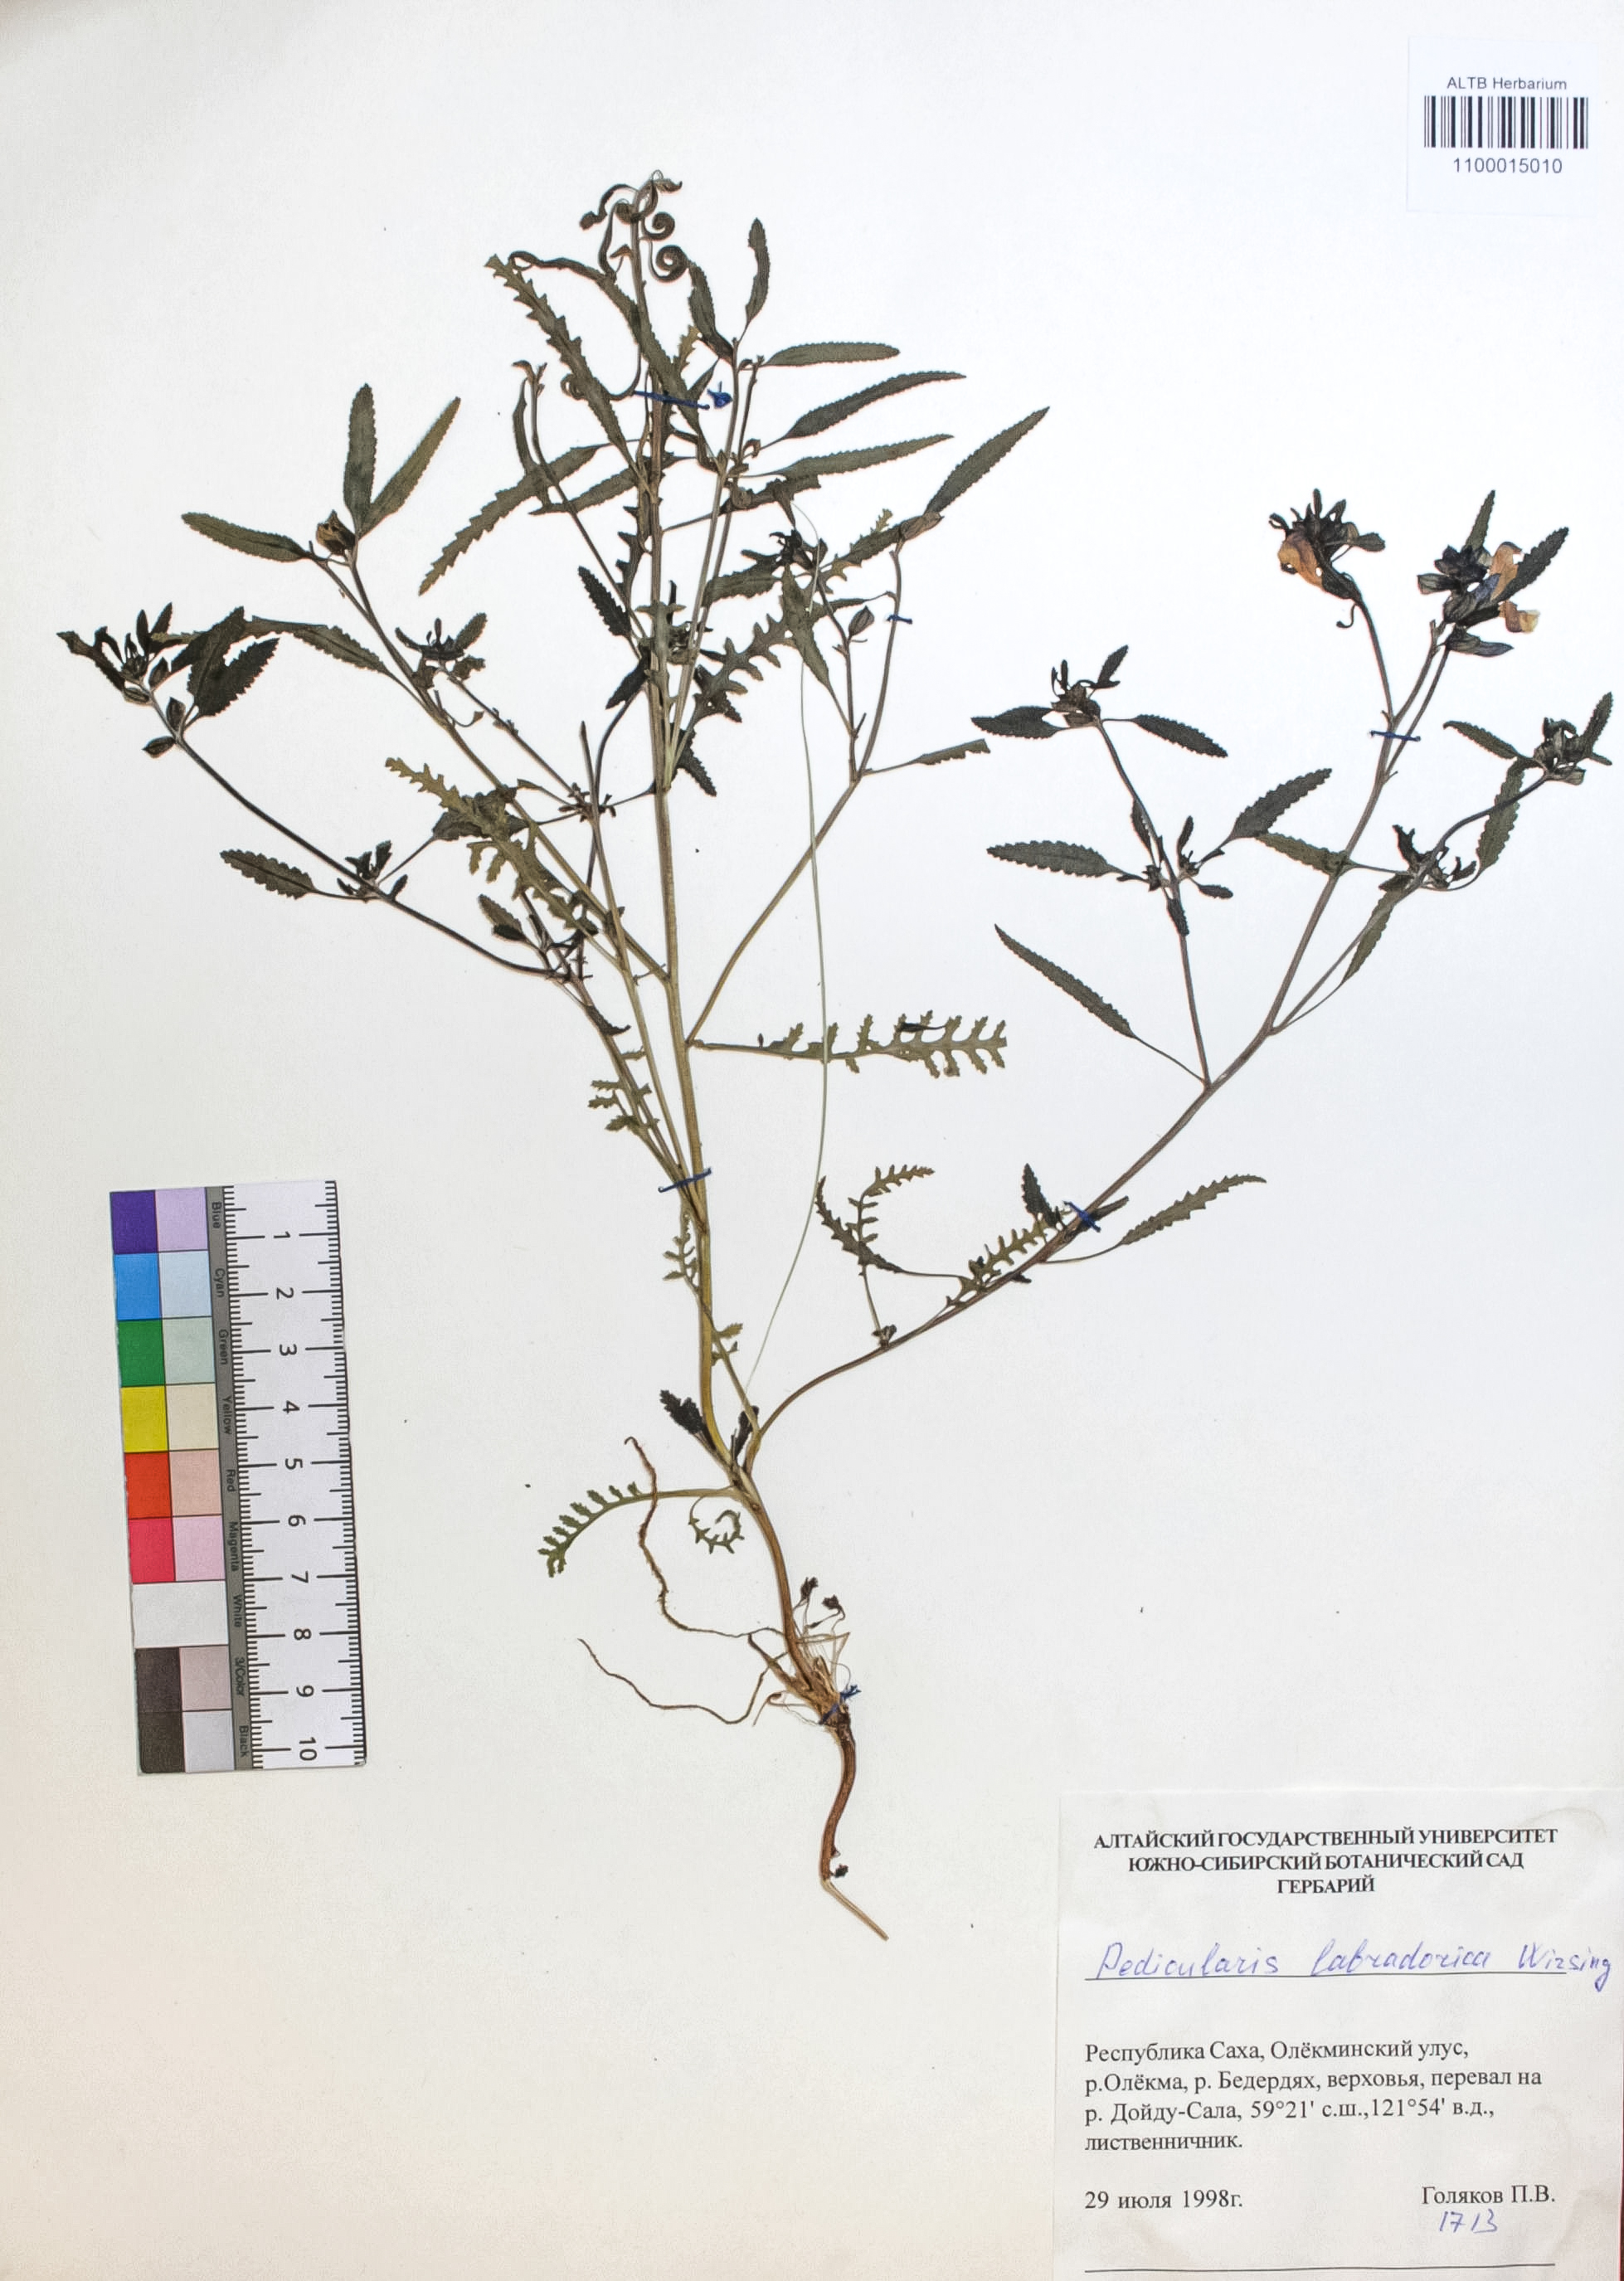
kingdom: Plantae
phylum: Tracheophyta
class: Magnoliopsida
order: Lamiales
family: Orobanchaceae
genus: Pedicularis
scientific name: Pedicularis labradorica
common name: Labrador lousewort
